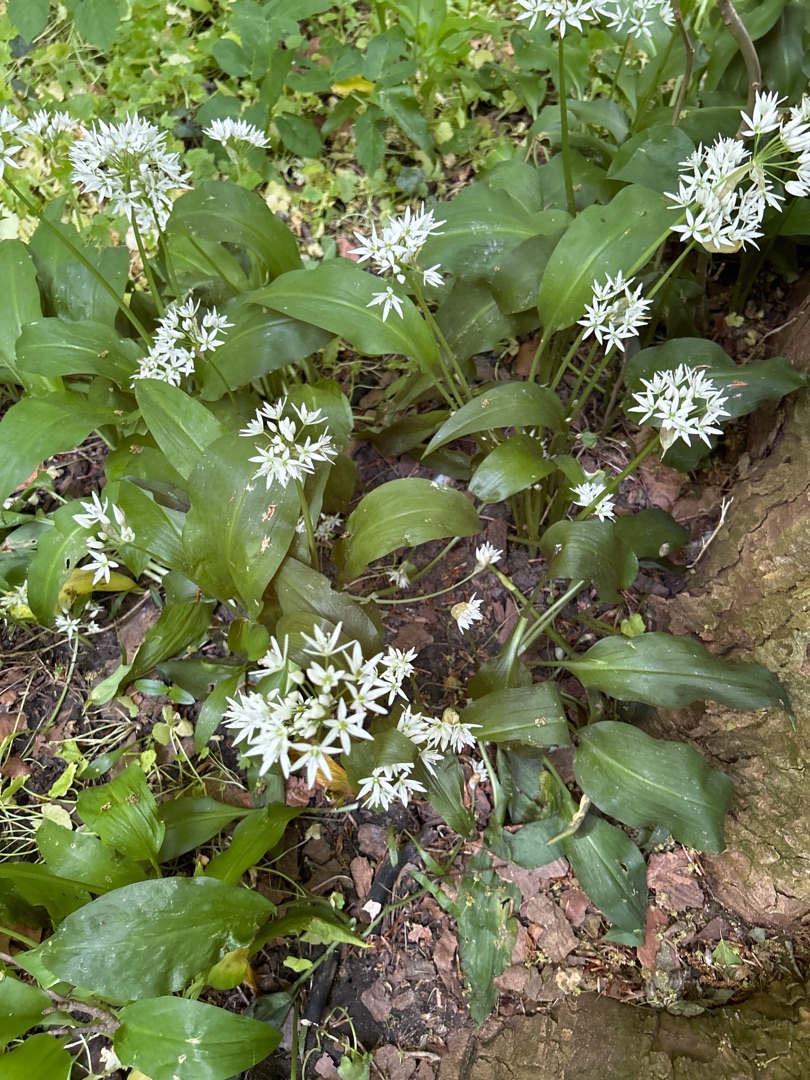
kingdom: Plantae
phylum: Tracheophyta
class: Liliopsida
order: Asparagales
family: Amaryllidaceae
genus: Allium
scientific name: Allium ursinum
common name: Rams-løg
